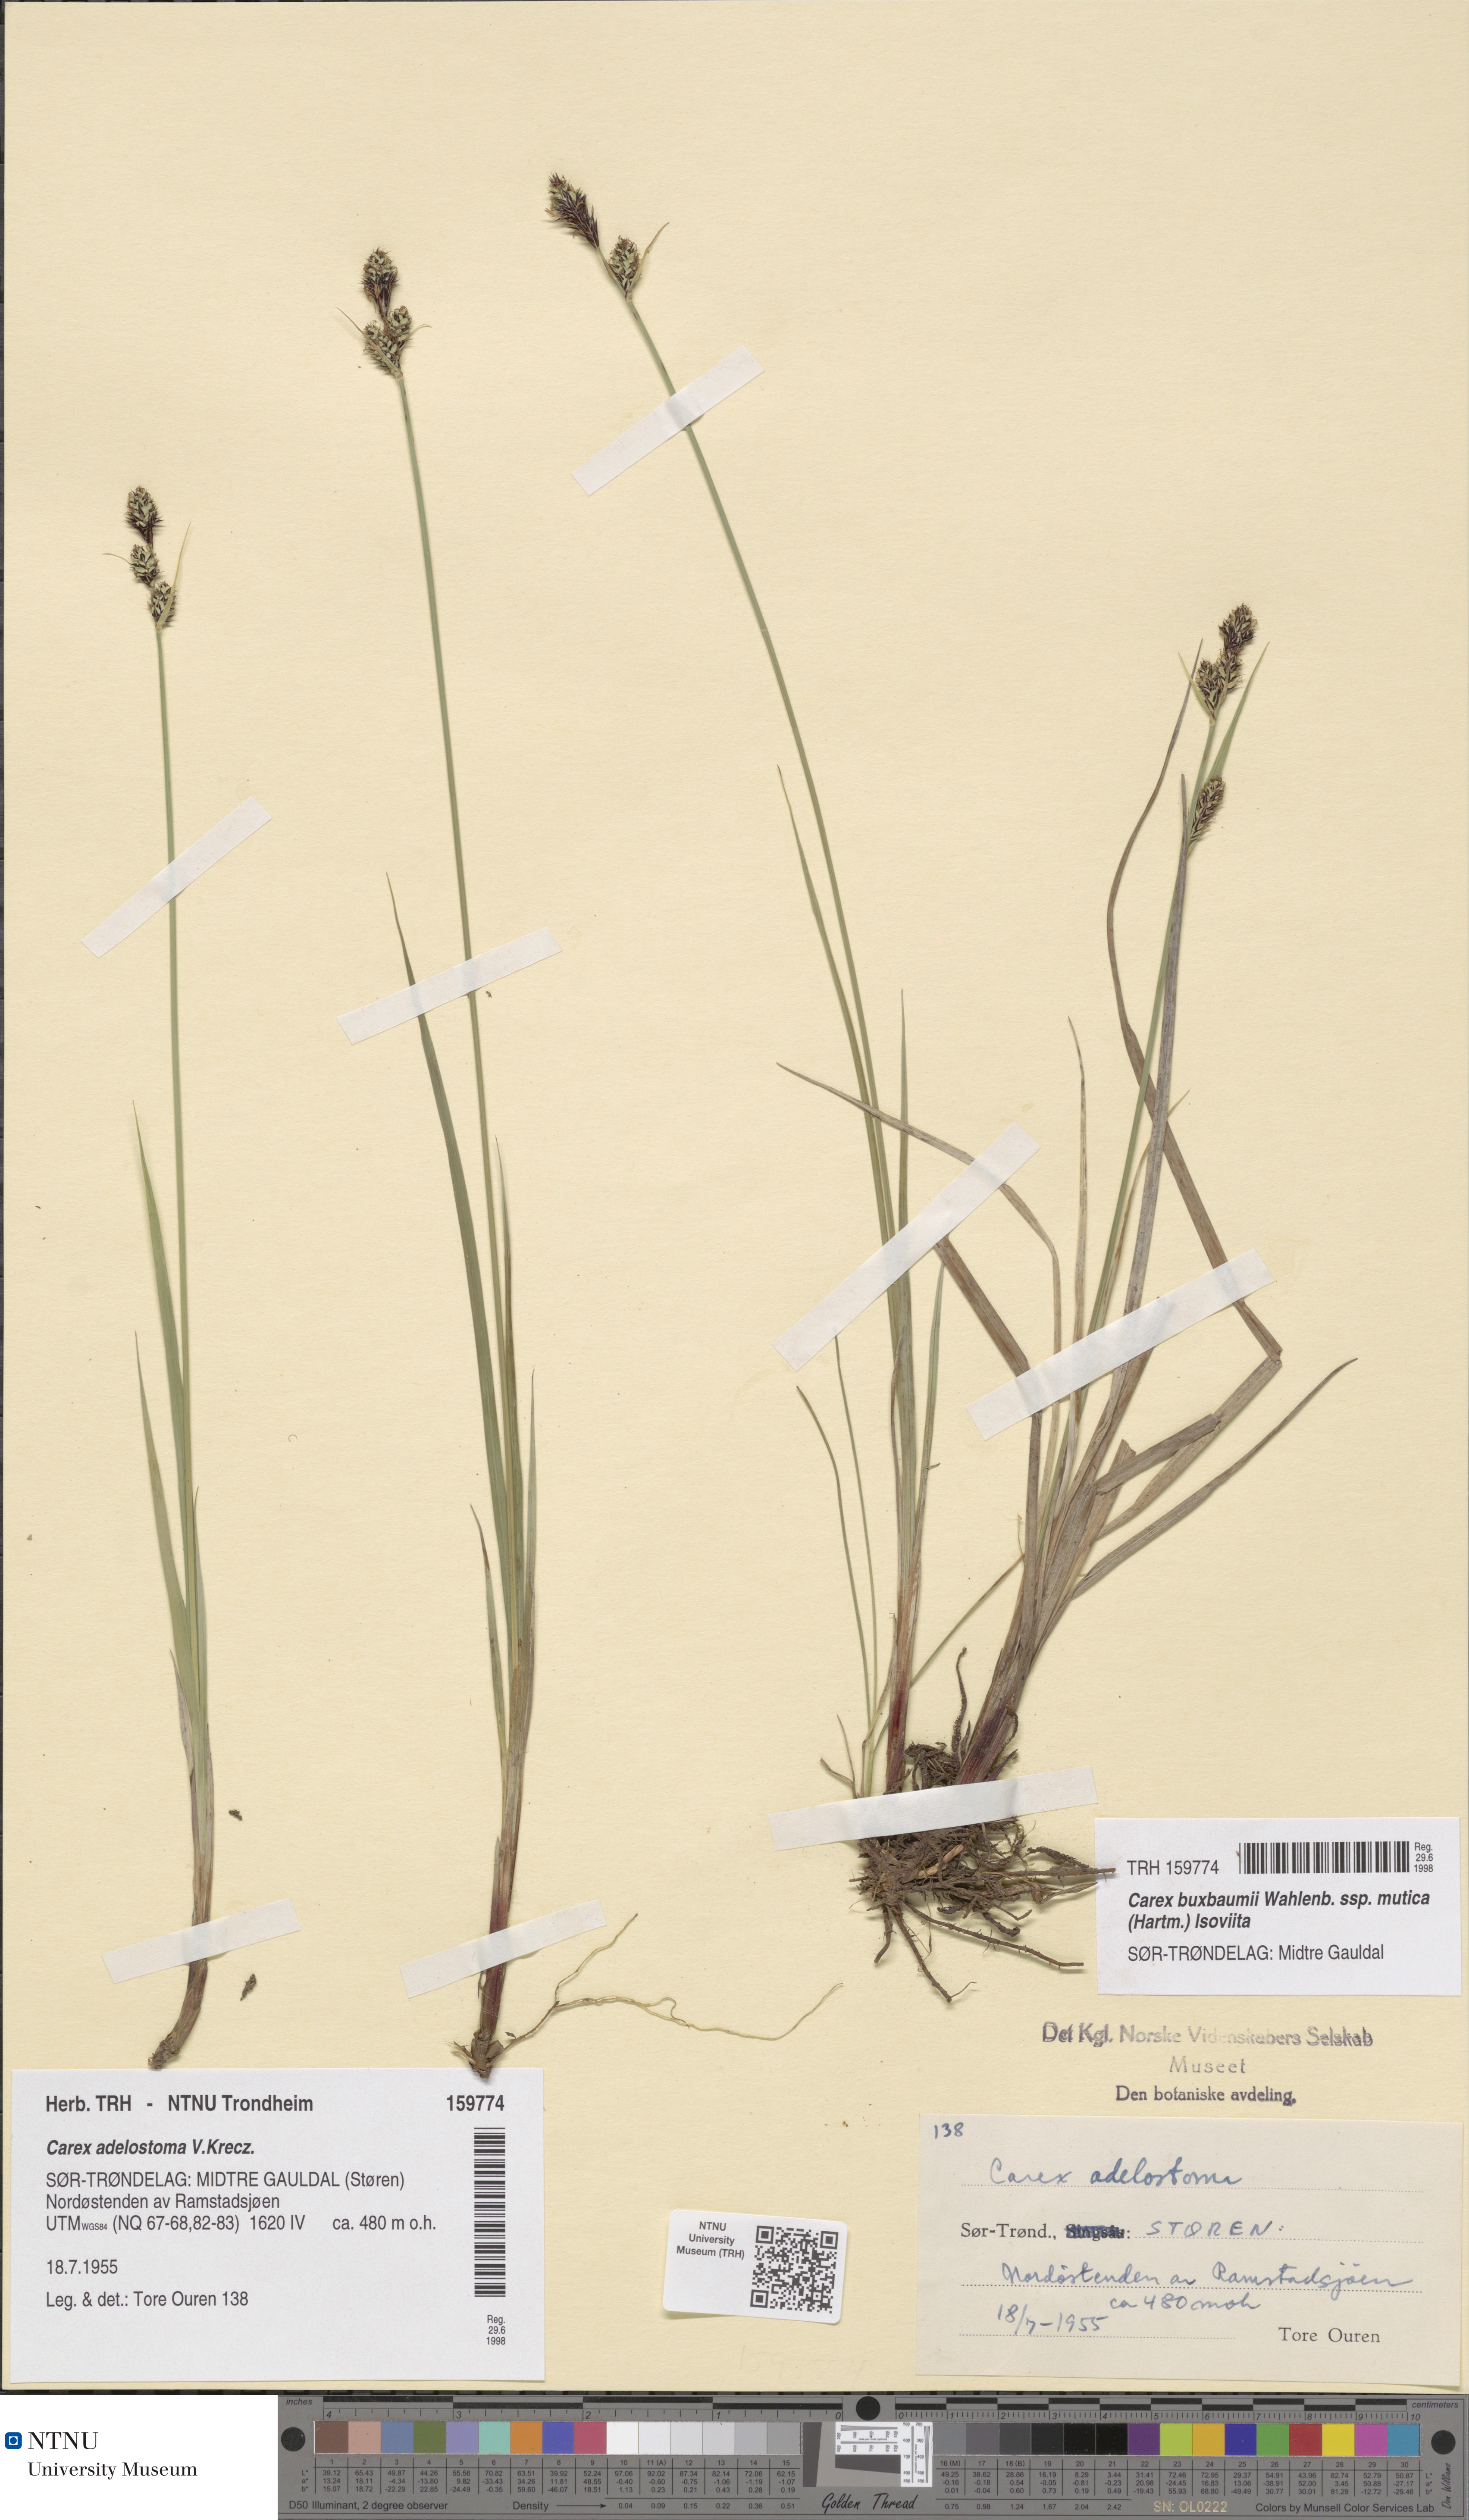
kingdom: Plantae
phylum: Tracheophyta
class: Liliopsida
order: Poales
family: Cyperaceae
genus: Carex
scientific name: Carex adelostoma
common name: Circumpolar sedge
